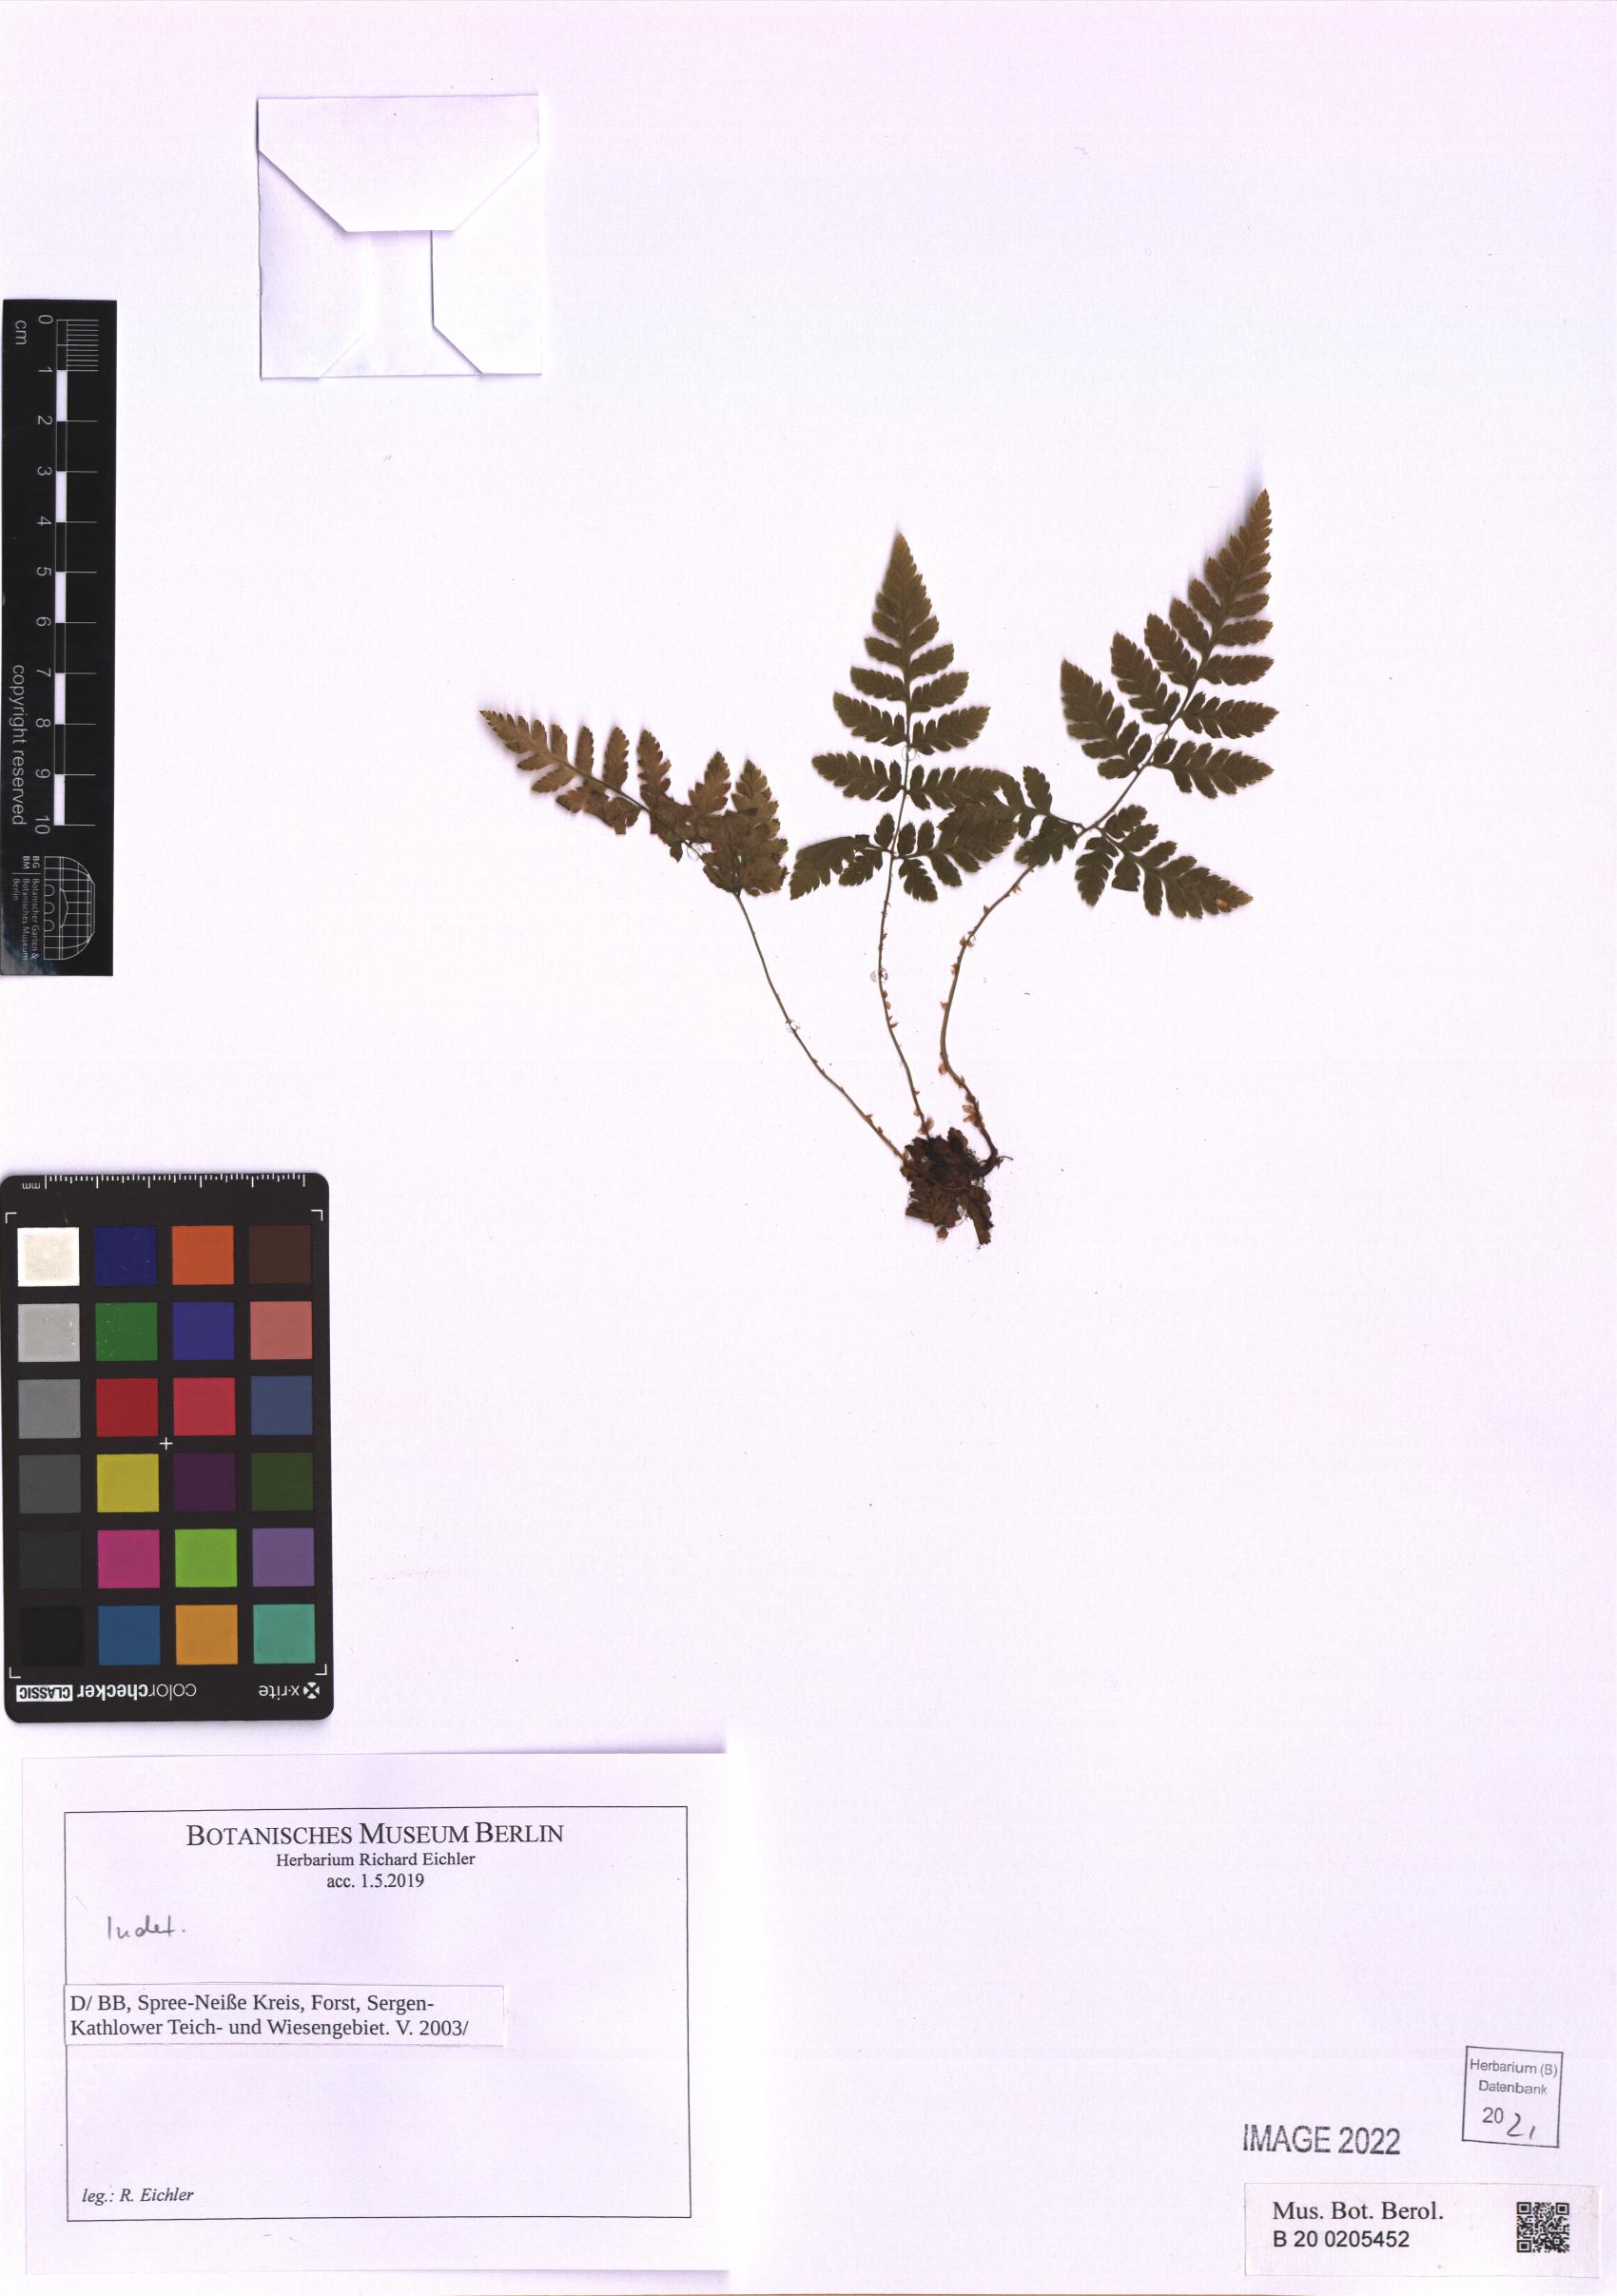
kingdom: Plantae
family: Pteridophyta
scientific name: Pteridophyta
